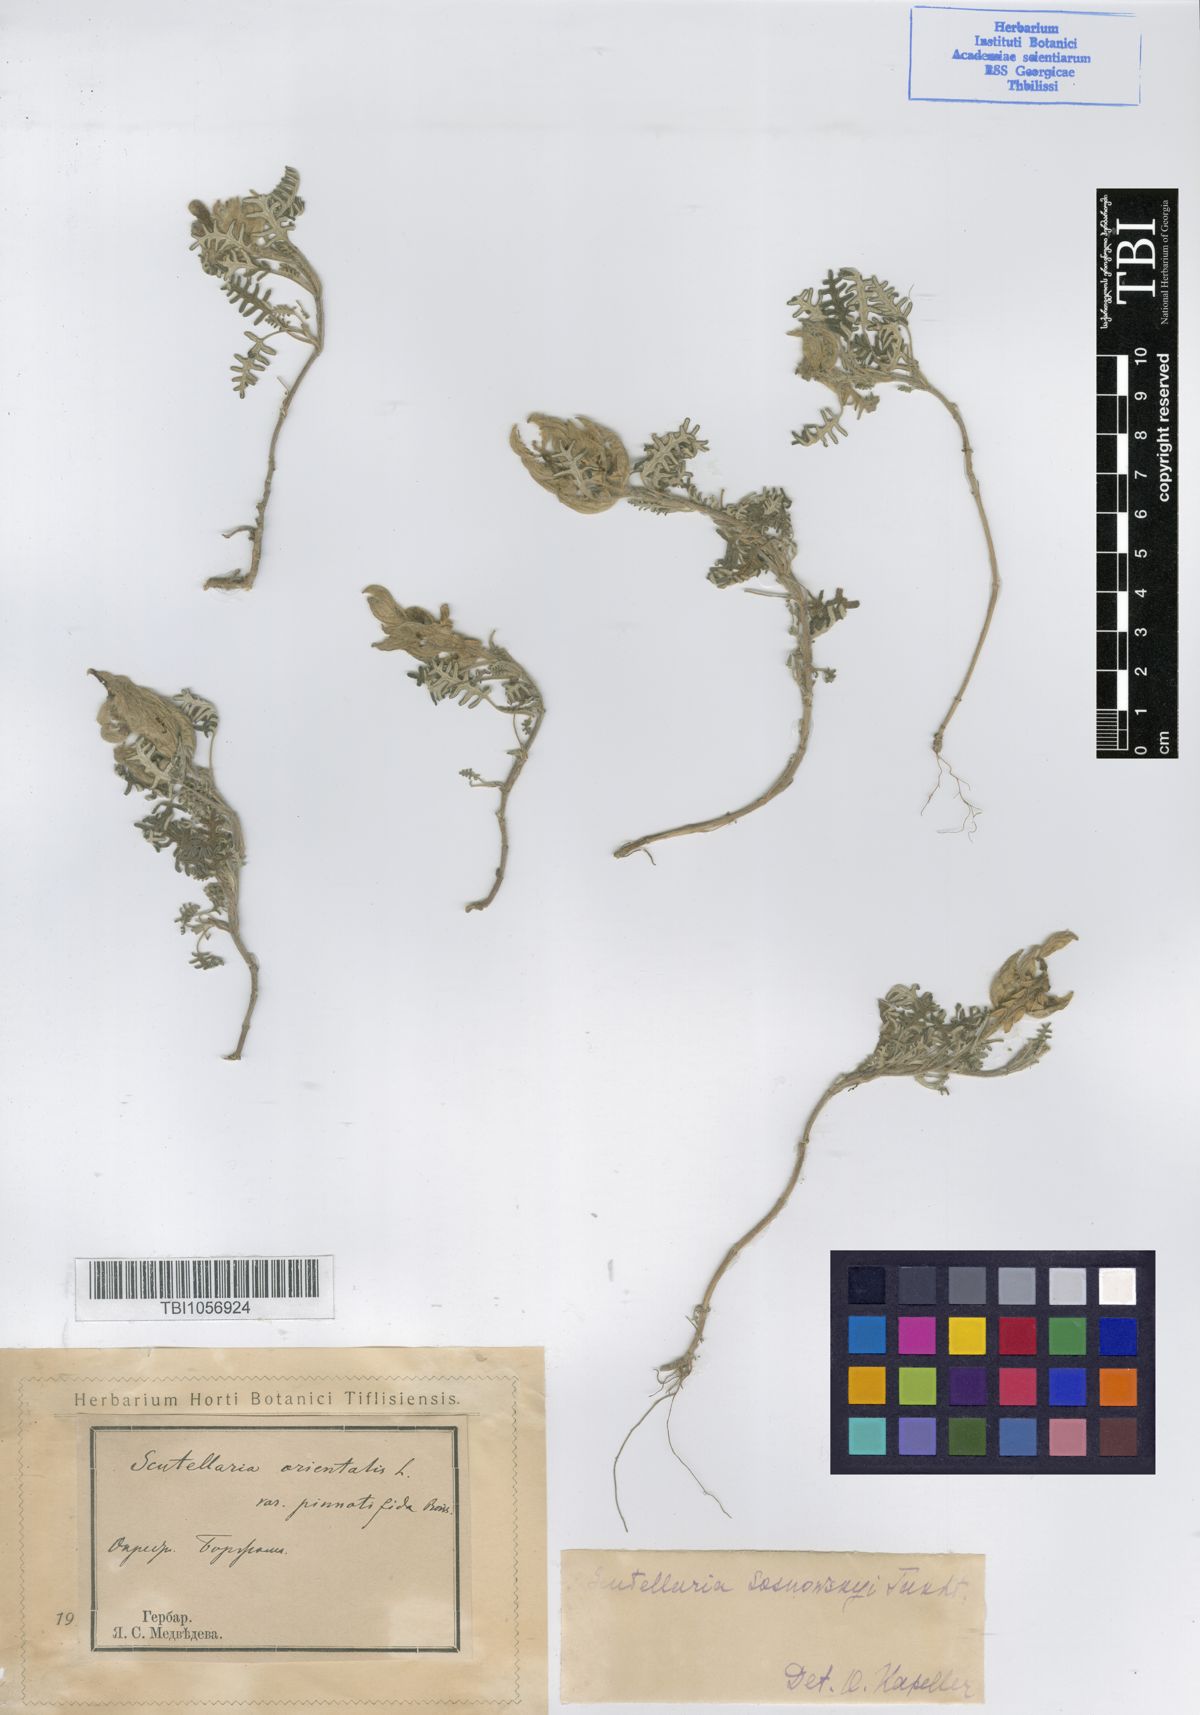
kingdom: Plantae
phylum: Tracheophyta
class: Magnoliopsida
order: Lamiales
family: Lamiaceae
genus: Scutellaria
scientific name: Scutellaria sosnowskyi
